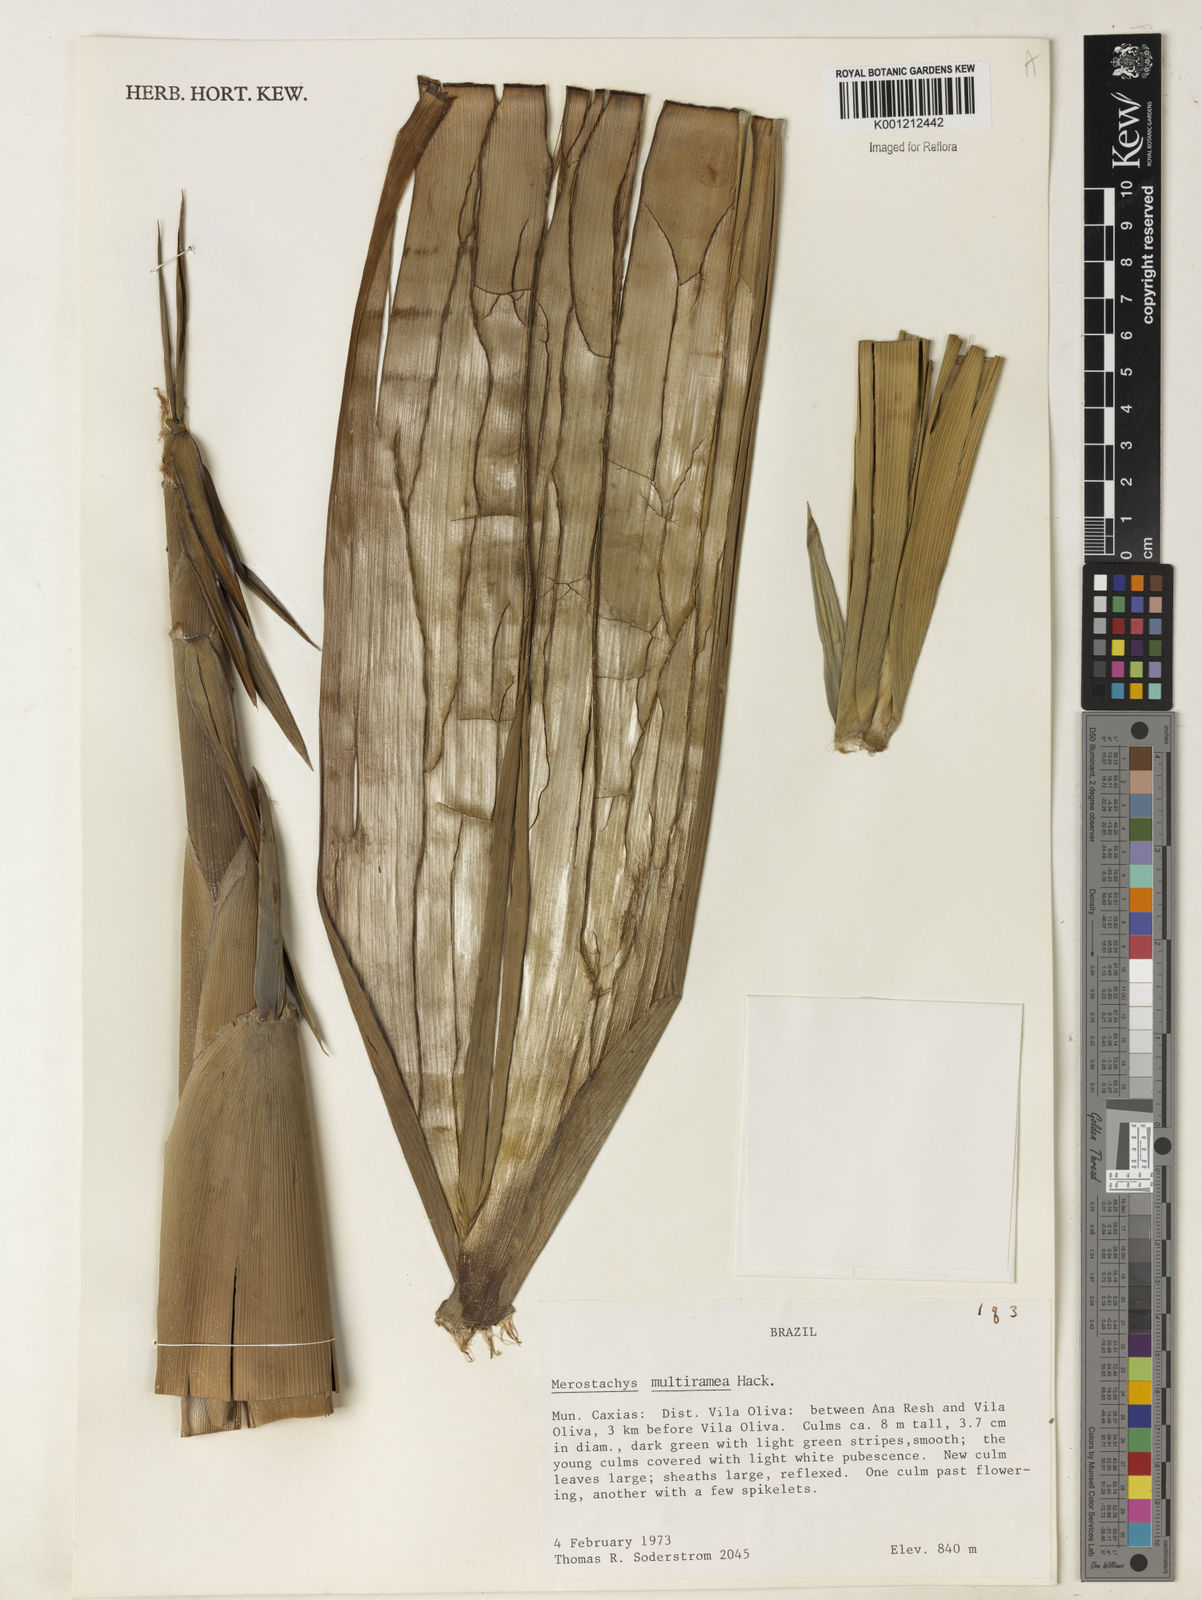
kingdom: Plantae
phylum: Tracheophyta
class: Liliopsida
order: Poales
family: Poaceae
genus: Merostachys
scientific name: Merostachys multiramea
